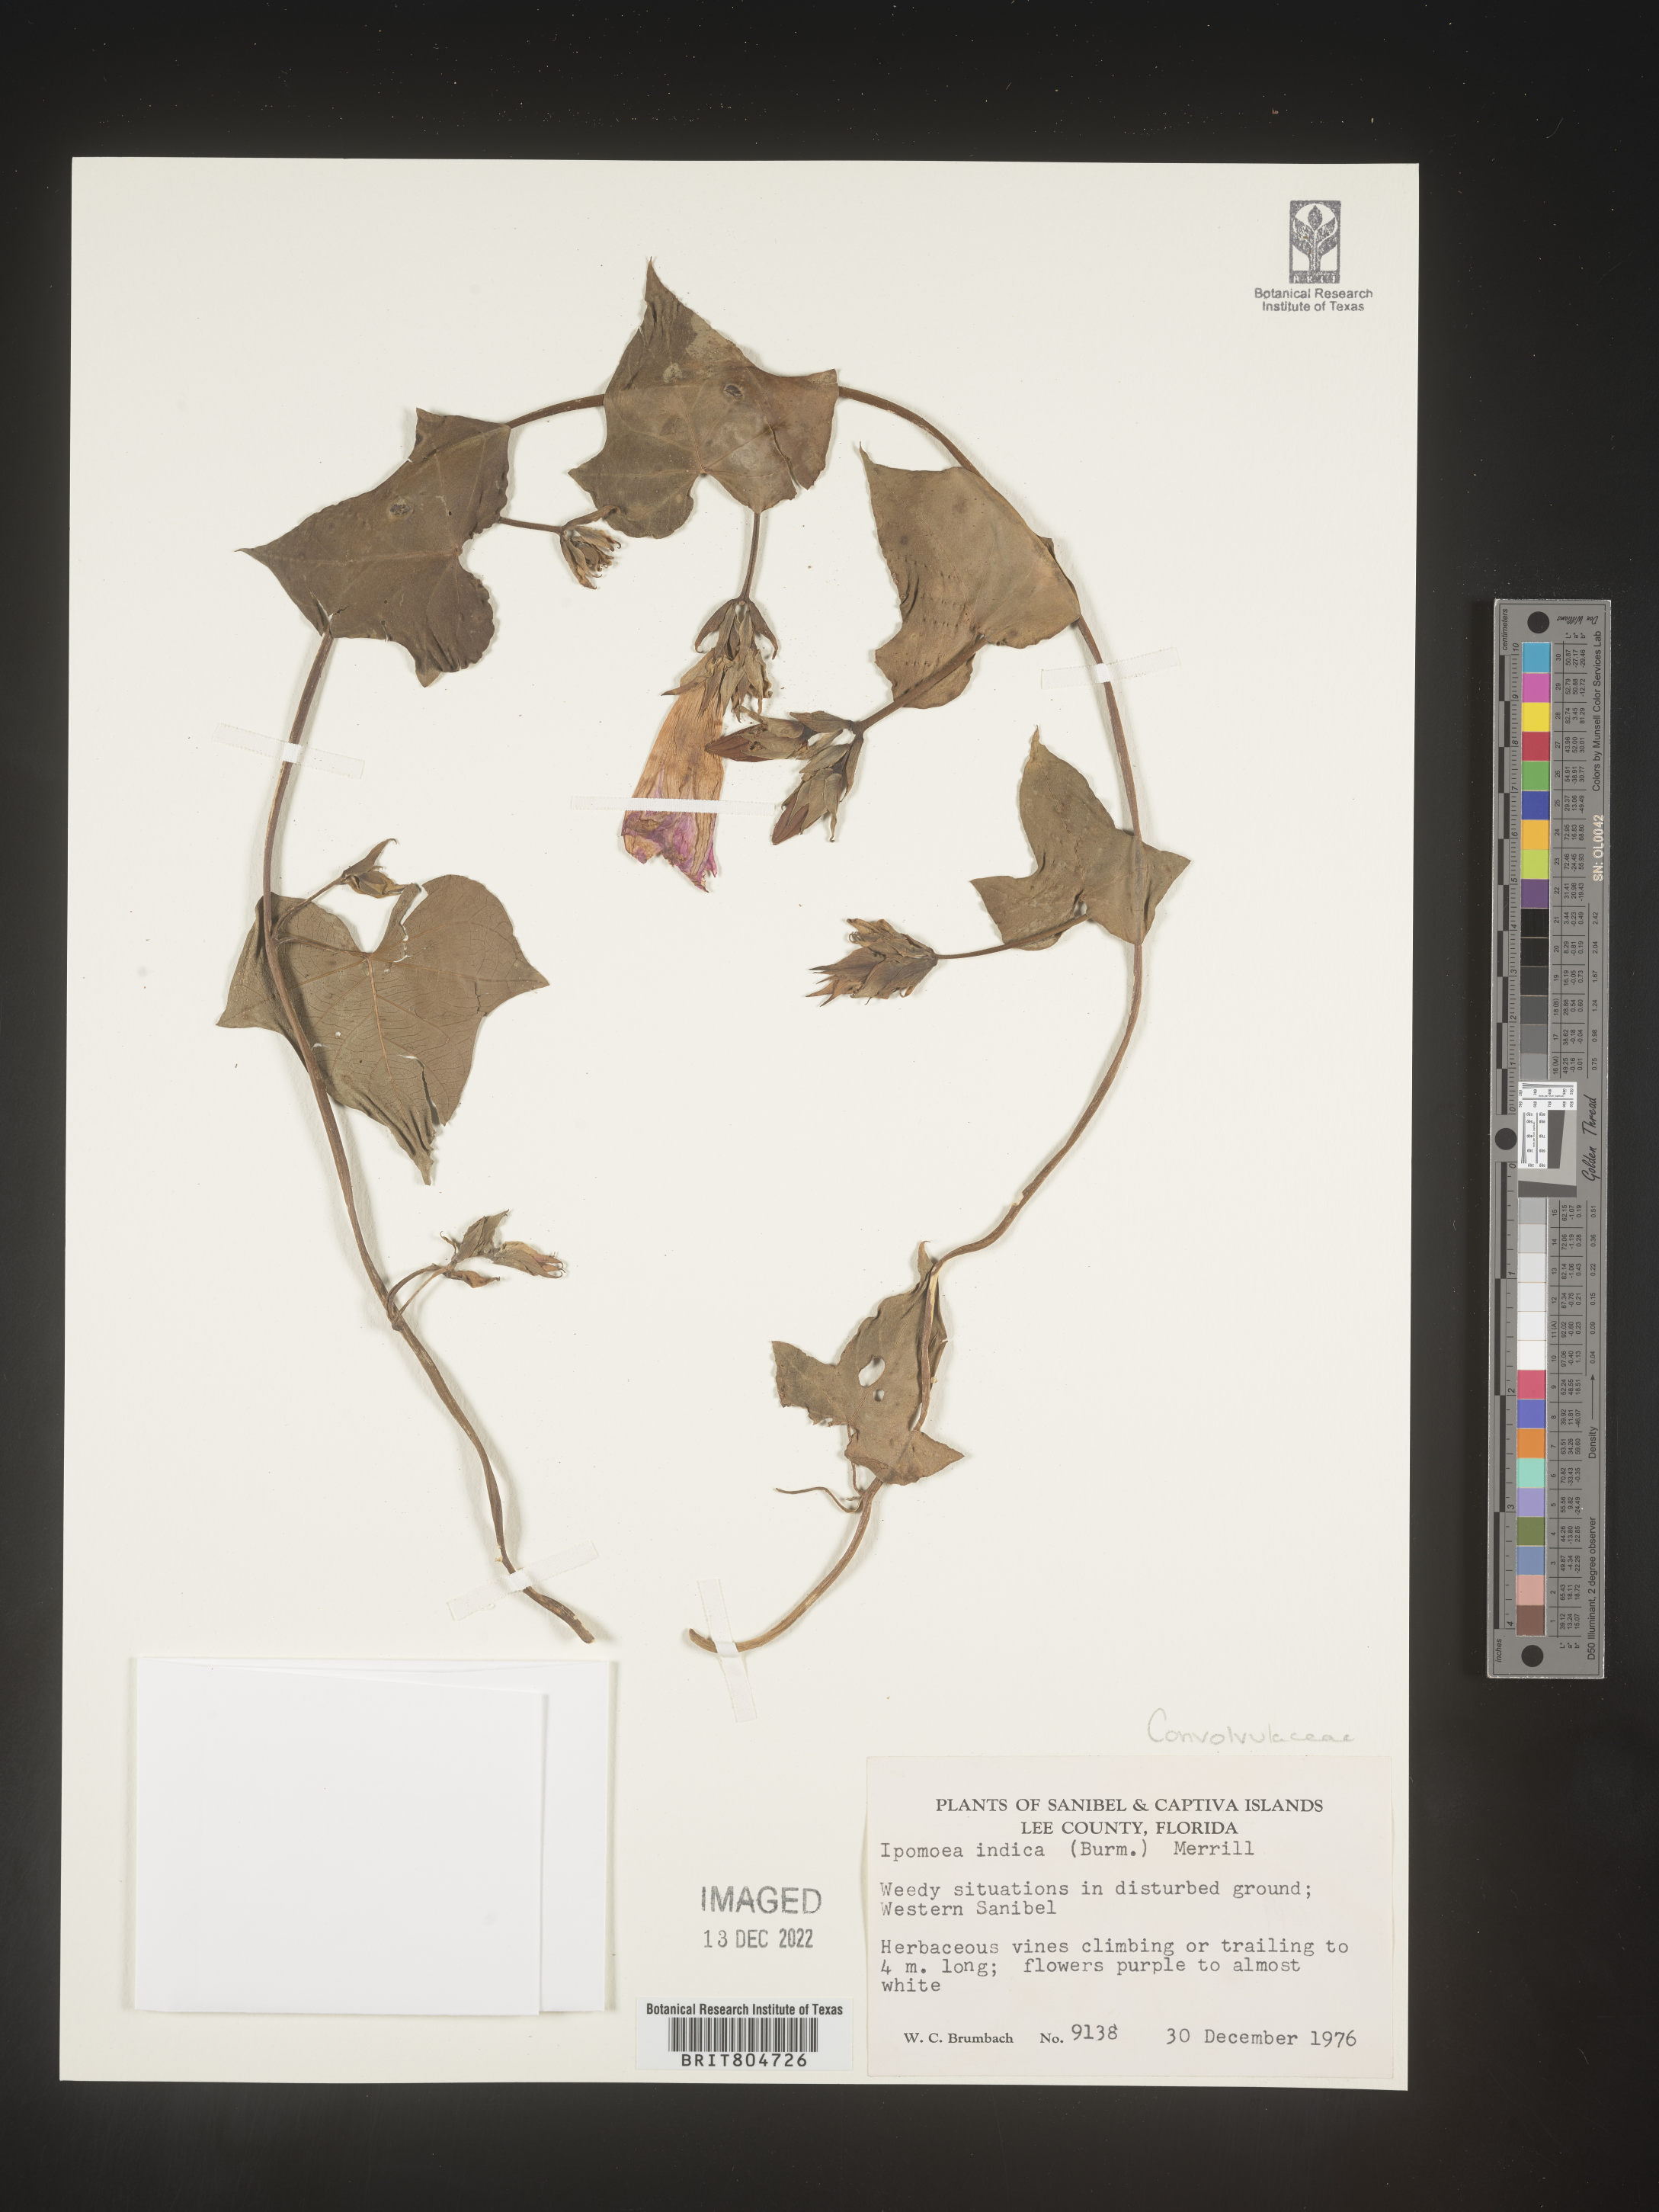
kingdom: Plantae
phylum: Tracheophyta
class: Magnoliopsida
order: Solanales
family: Convolvulaceae
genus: Ipomoea
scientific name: Ipomoea indica
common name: Blue dawnflower
